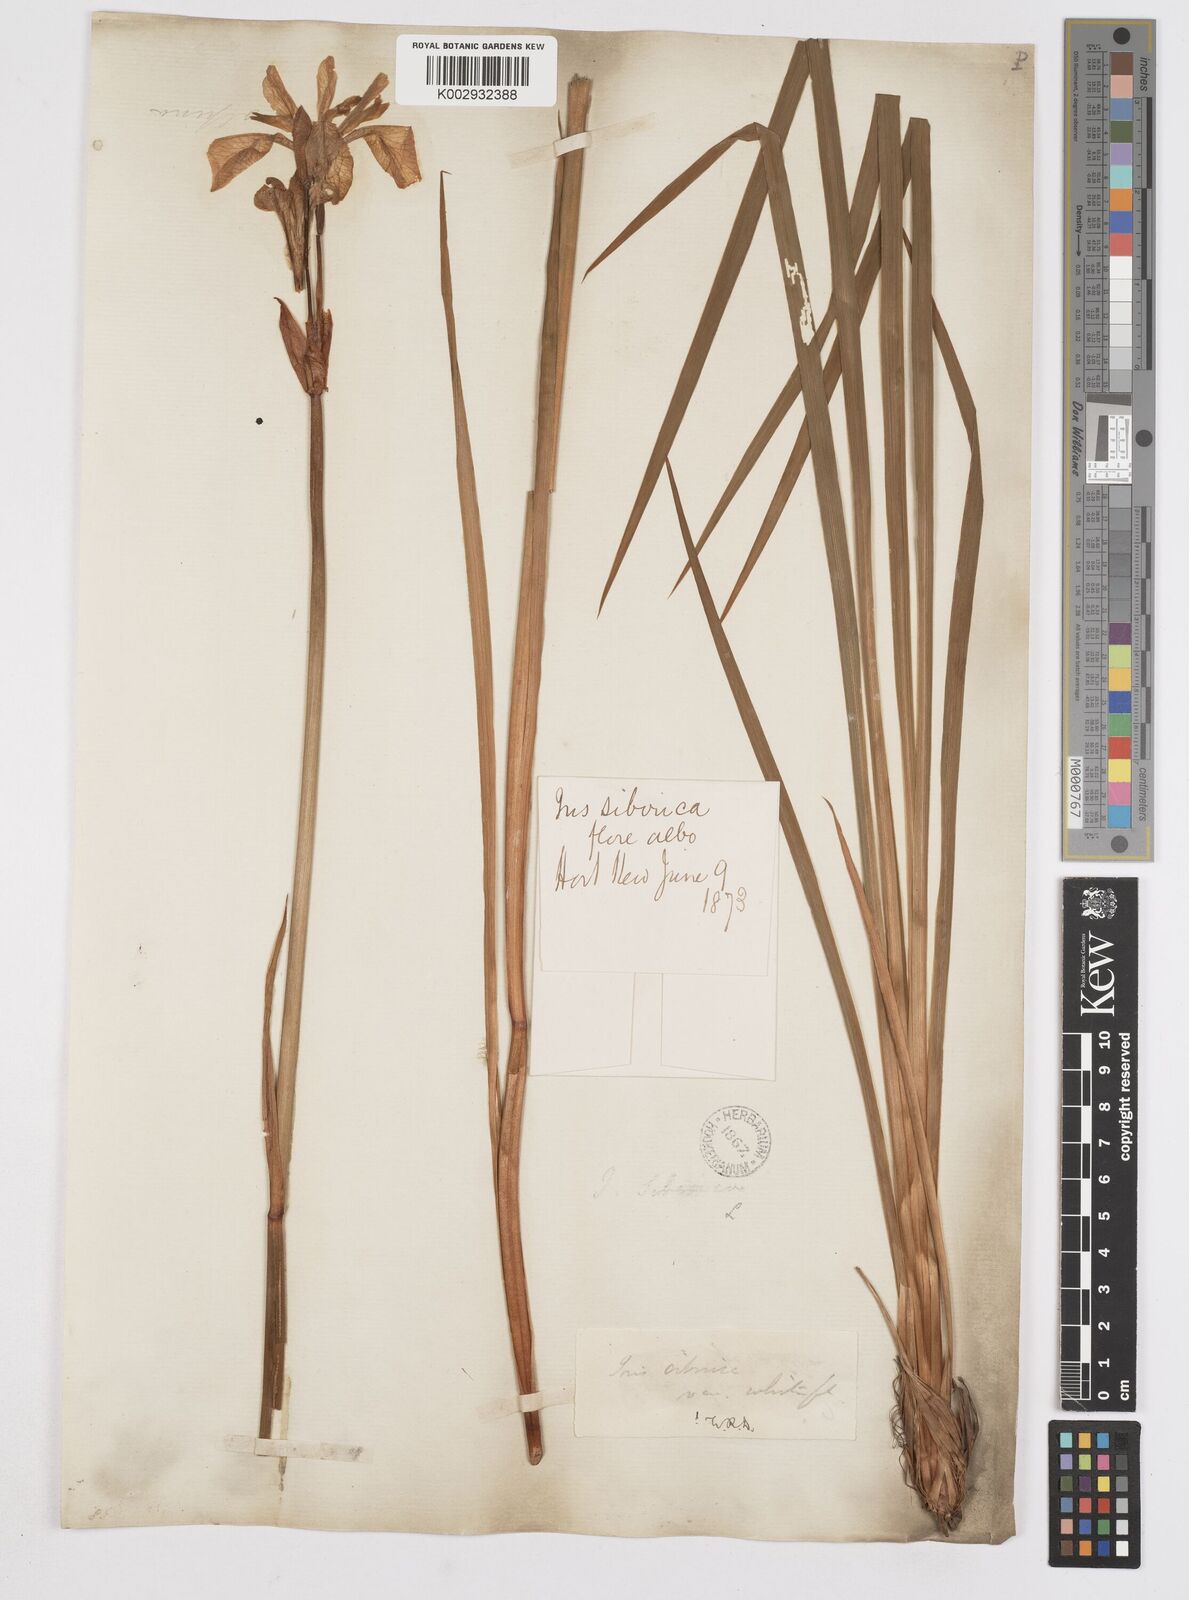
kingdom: Plantae
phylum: Tracheophyta
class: Liliopsida
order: Asparagales
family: Iridaceae
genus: Iris
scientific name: Iris sibirica
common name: Siberian iris
